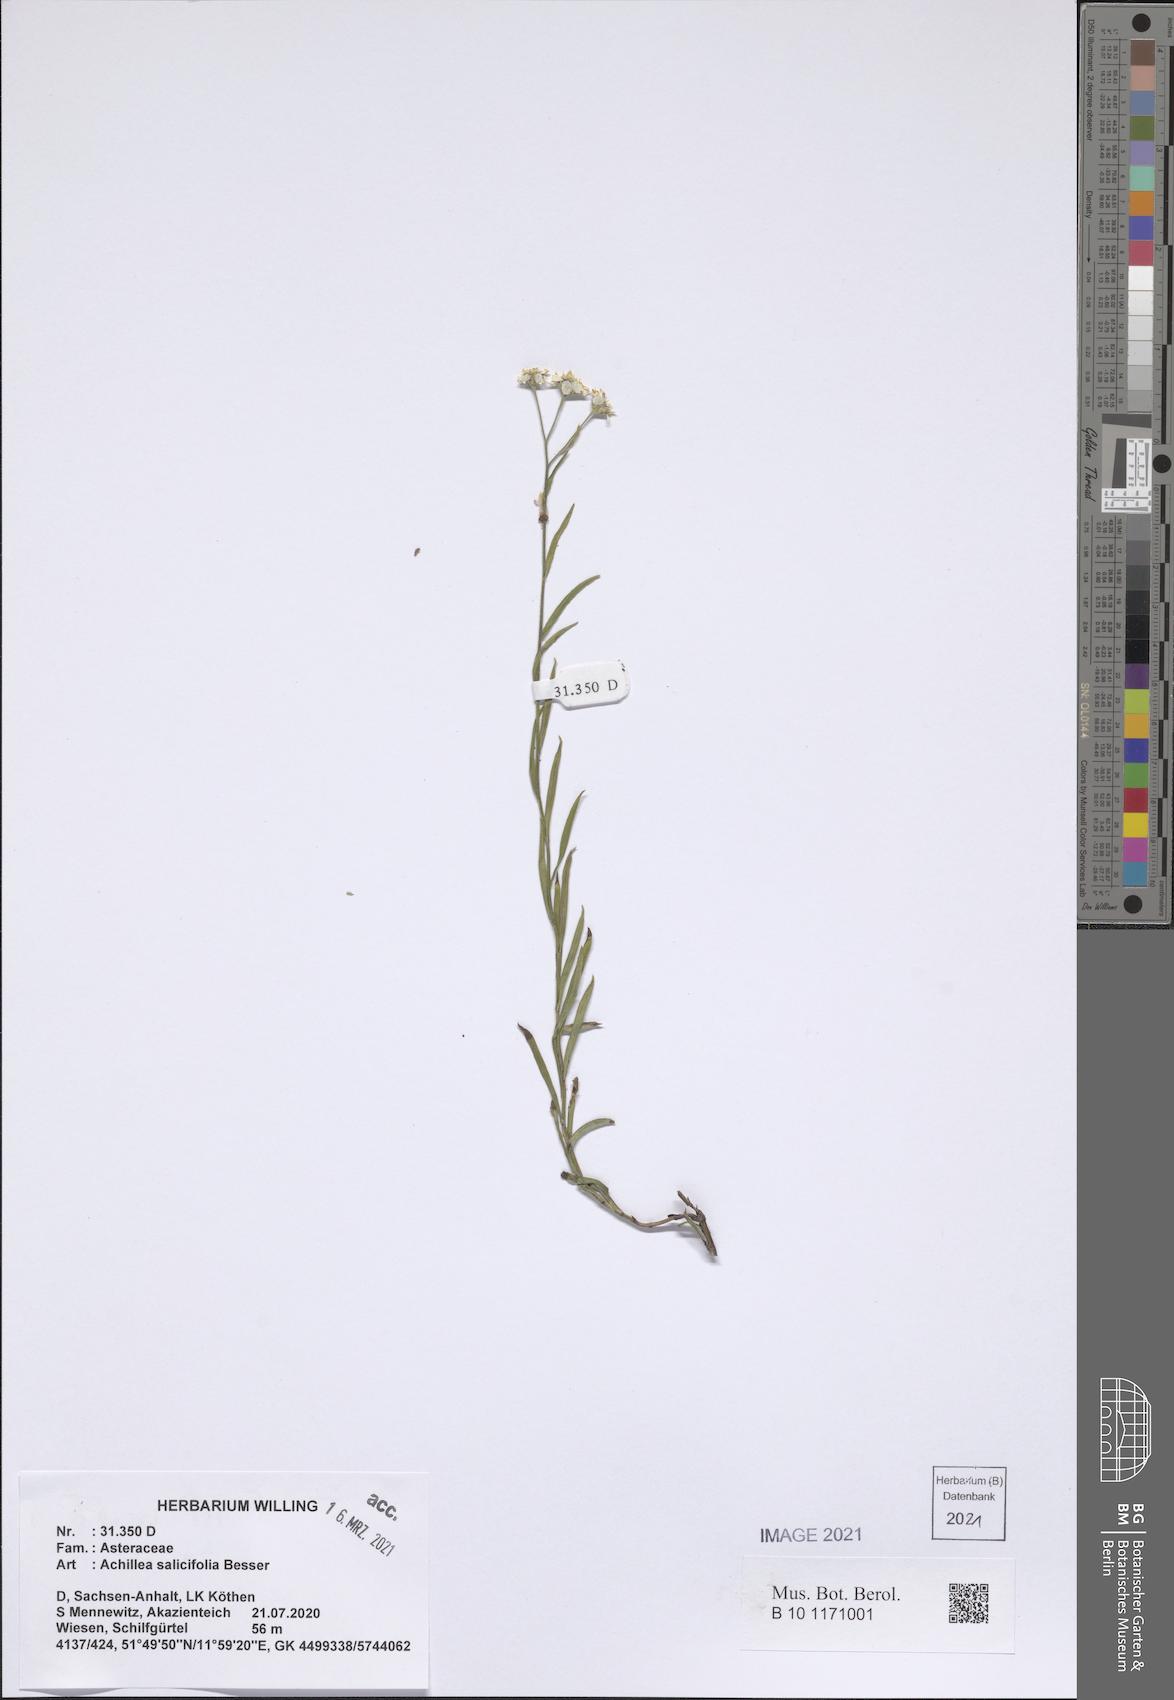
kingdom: Plantae
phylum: Tracheophyta
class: Magnoliopsida
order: Asterales
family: Asteraceae
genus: Achillea
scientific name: Achillea salicifolia
